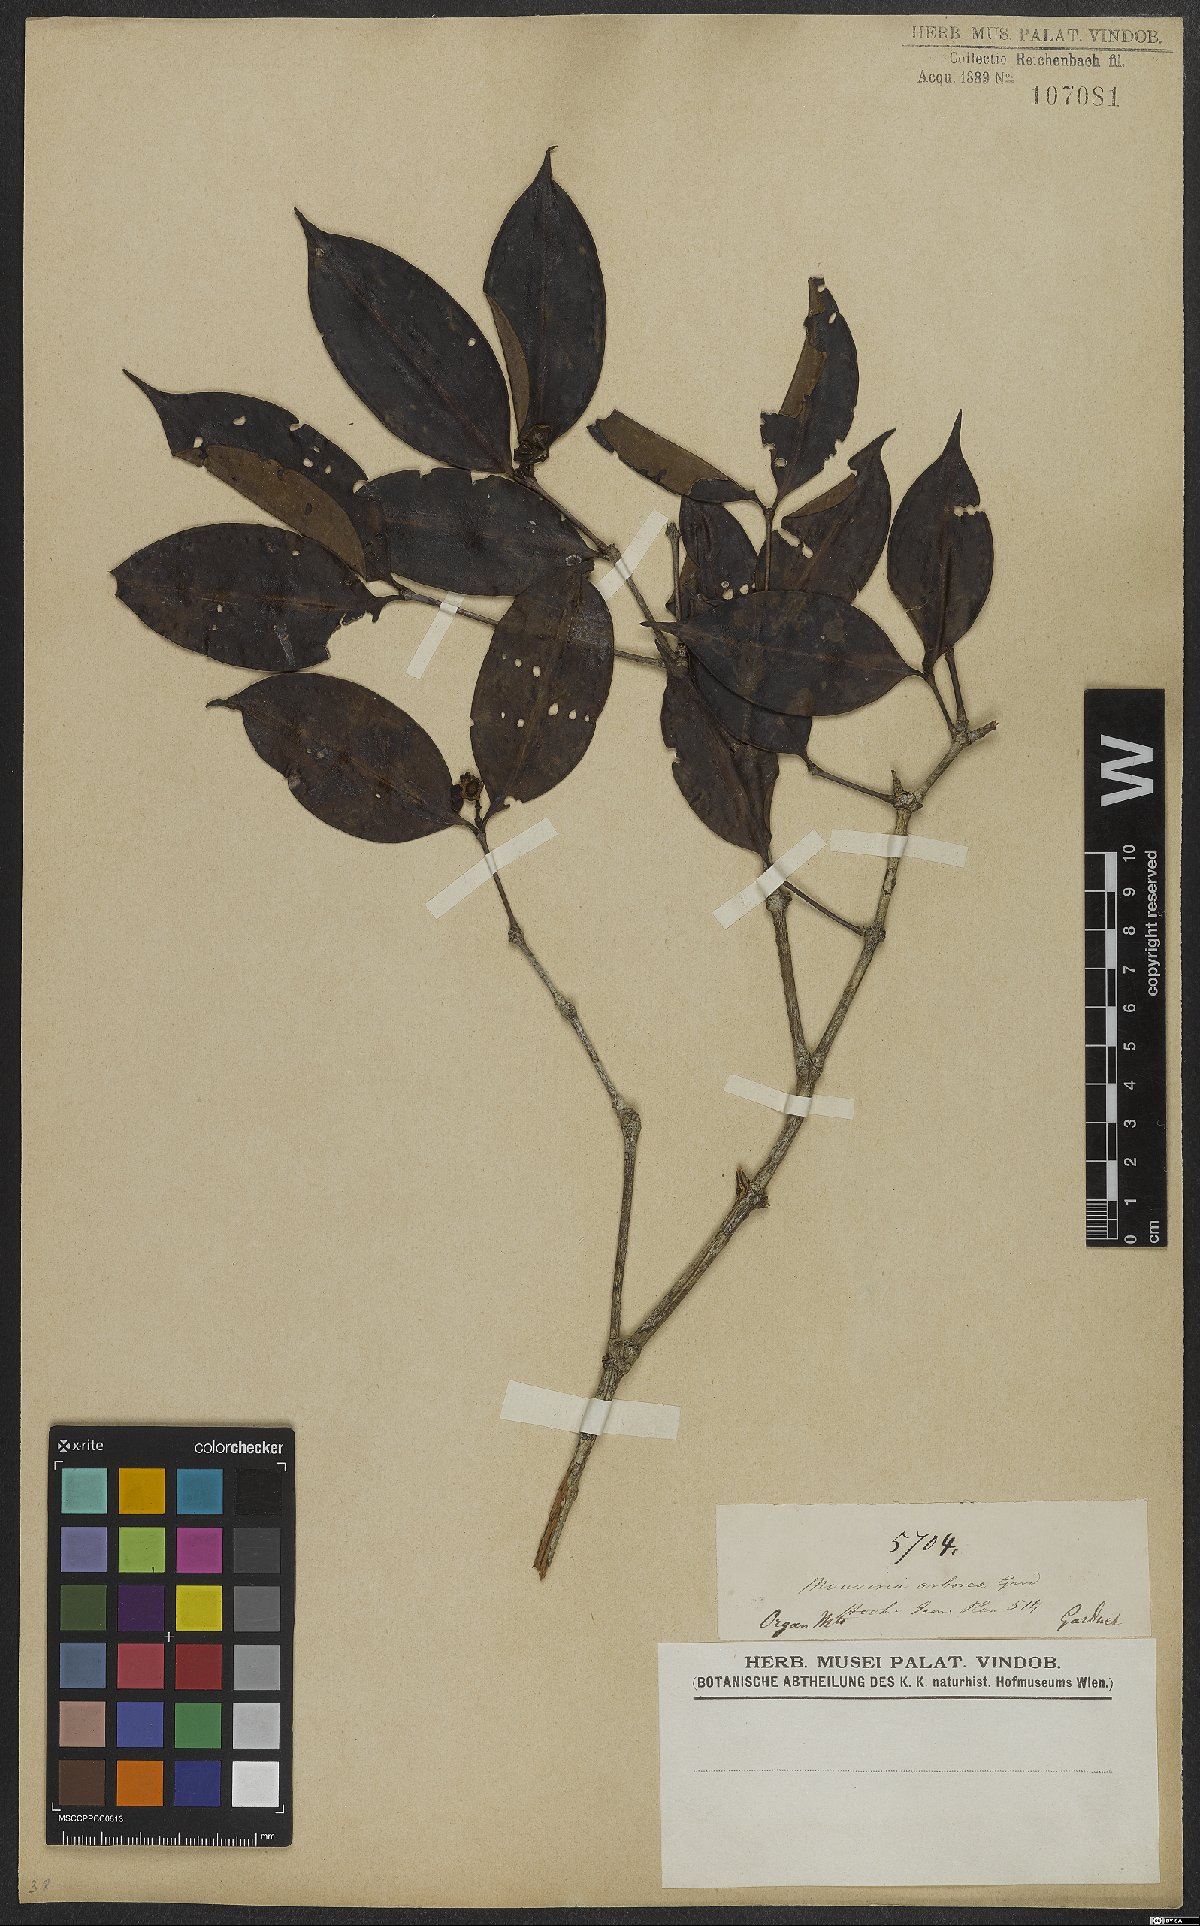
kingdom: Plantae
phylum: Tracheophyta
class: Magnoliopsida
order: Myrtales
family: Melastomataceae
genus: Mouriri
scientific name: Mouriri arborea
